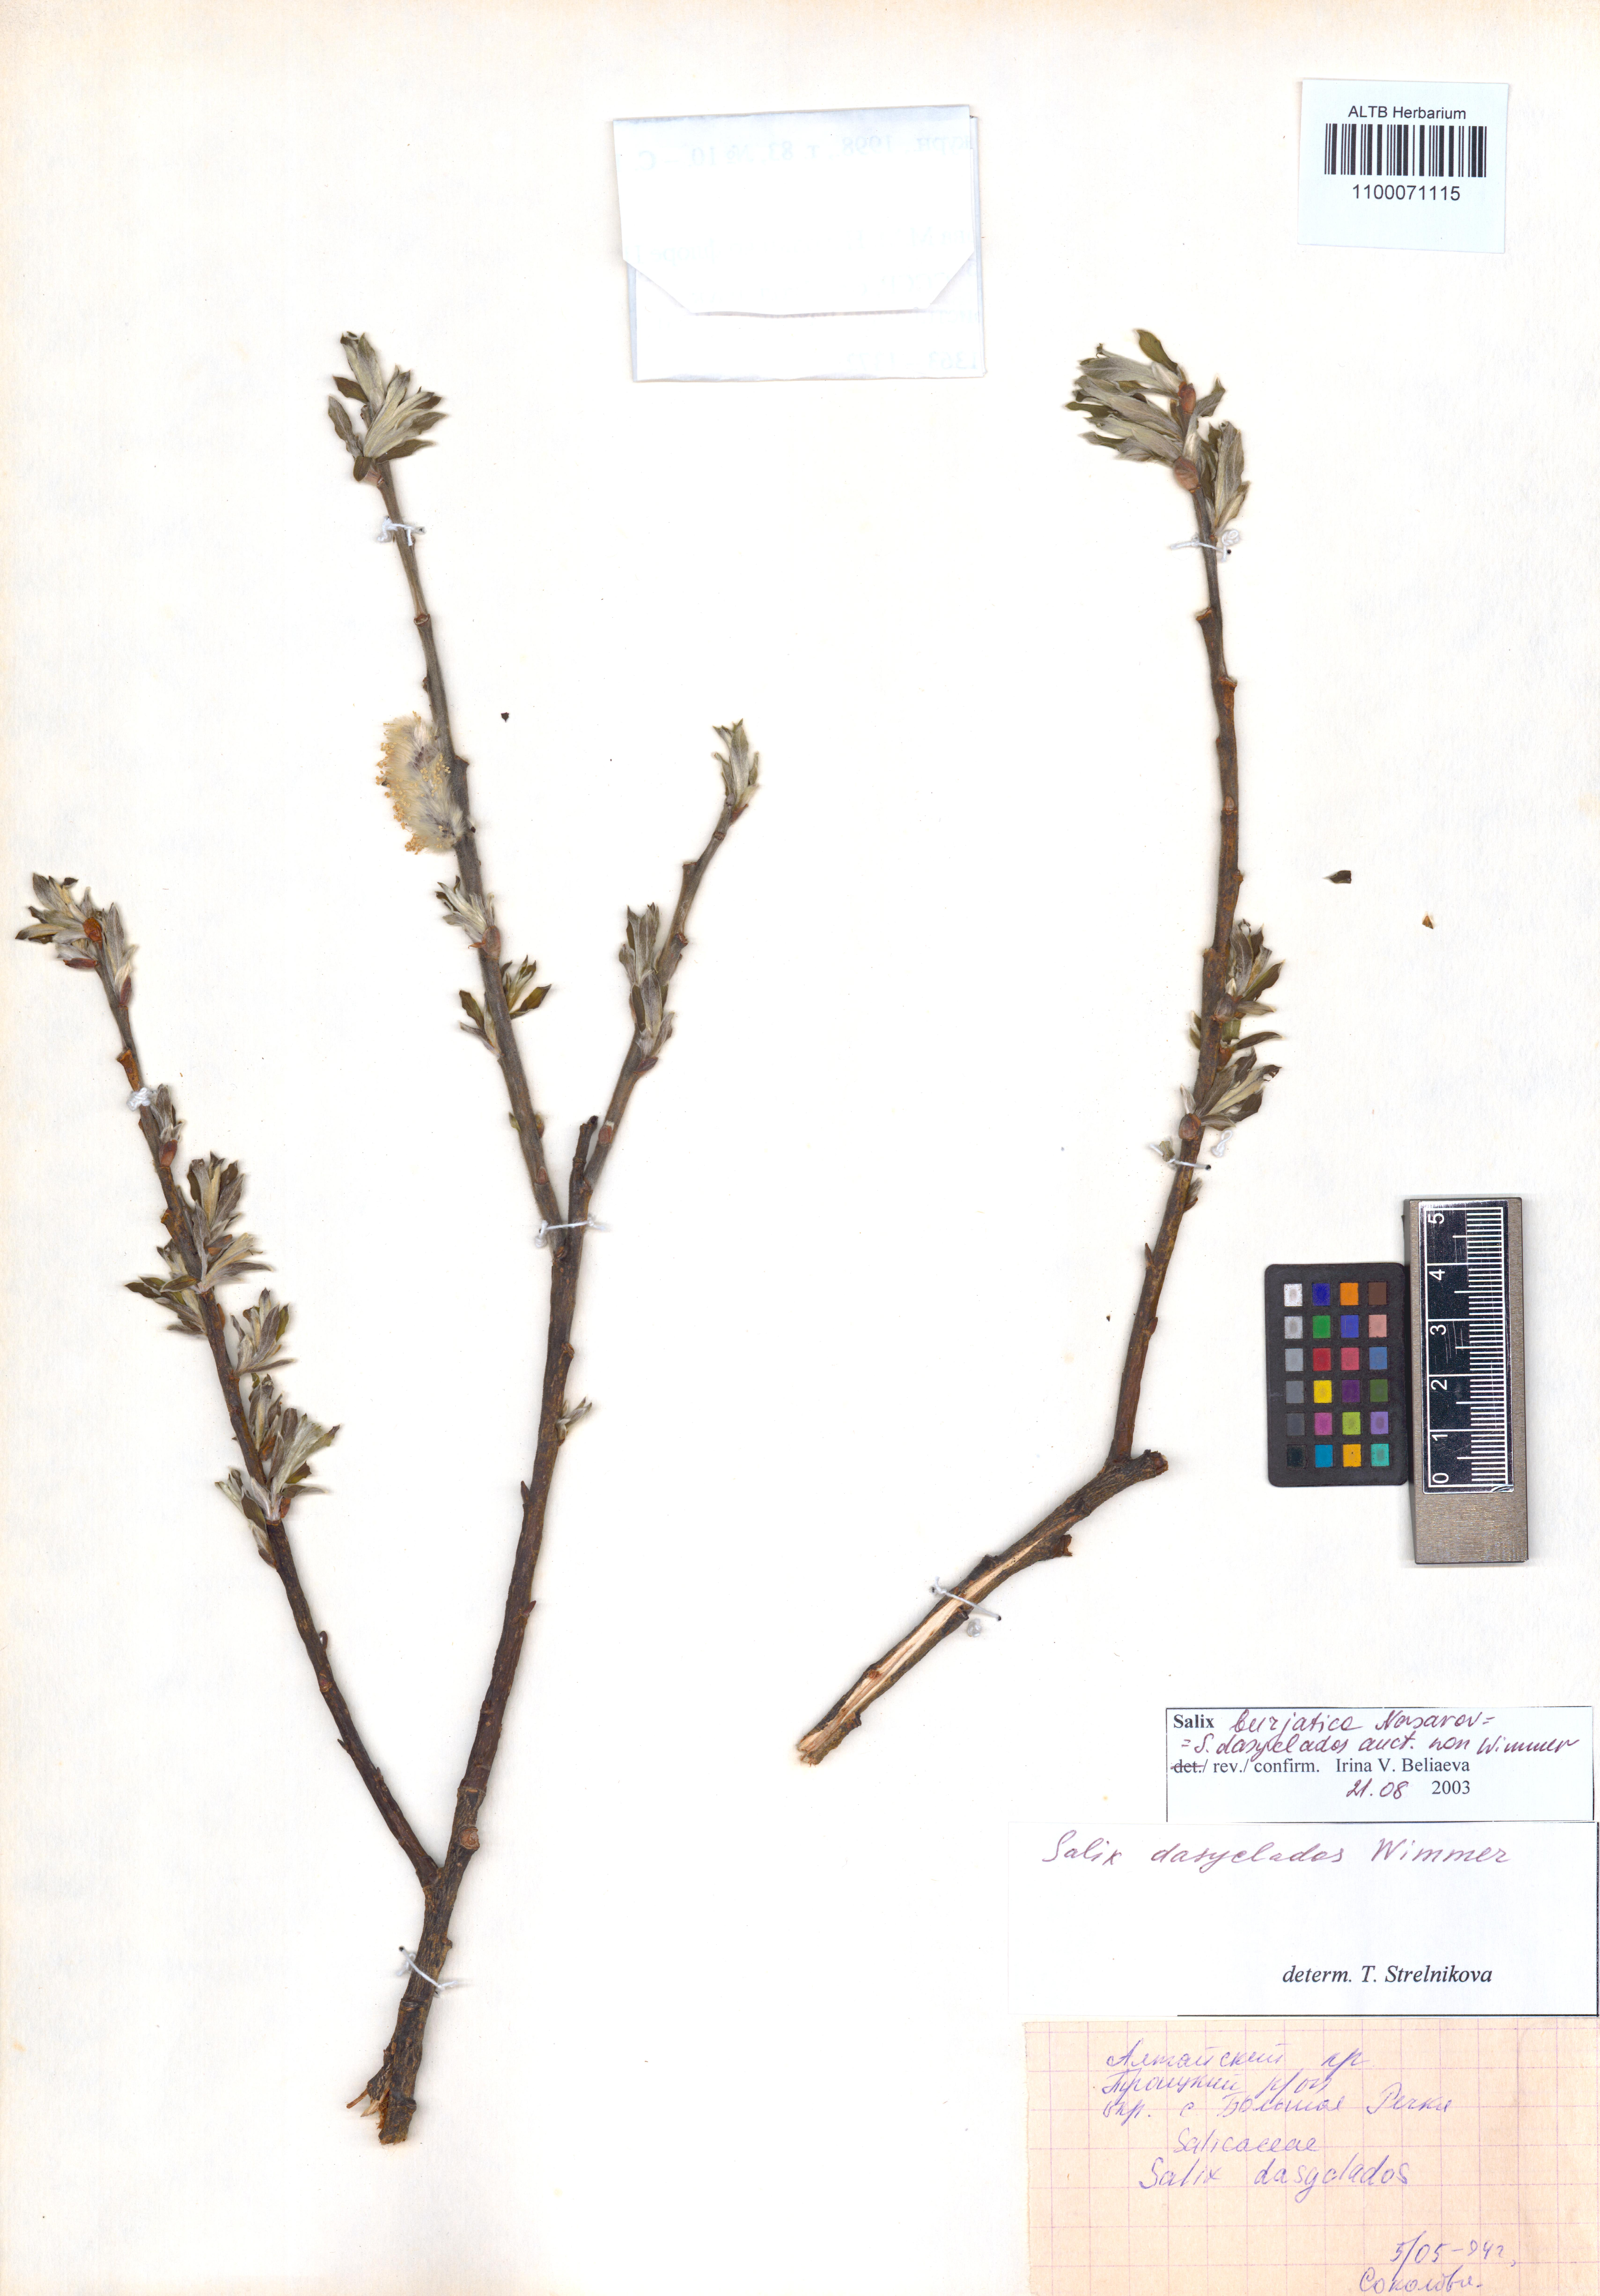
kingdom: Plantae
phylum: Tracheophyta
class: Magnoliopsida
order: Malpighiales
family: Salicaceae
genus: Salix
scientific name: Salix gmelinii
